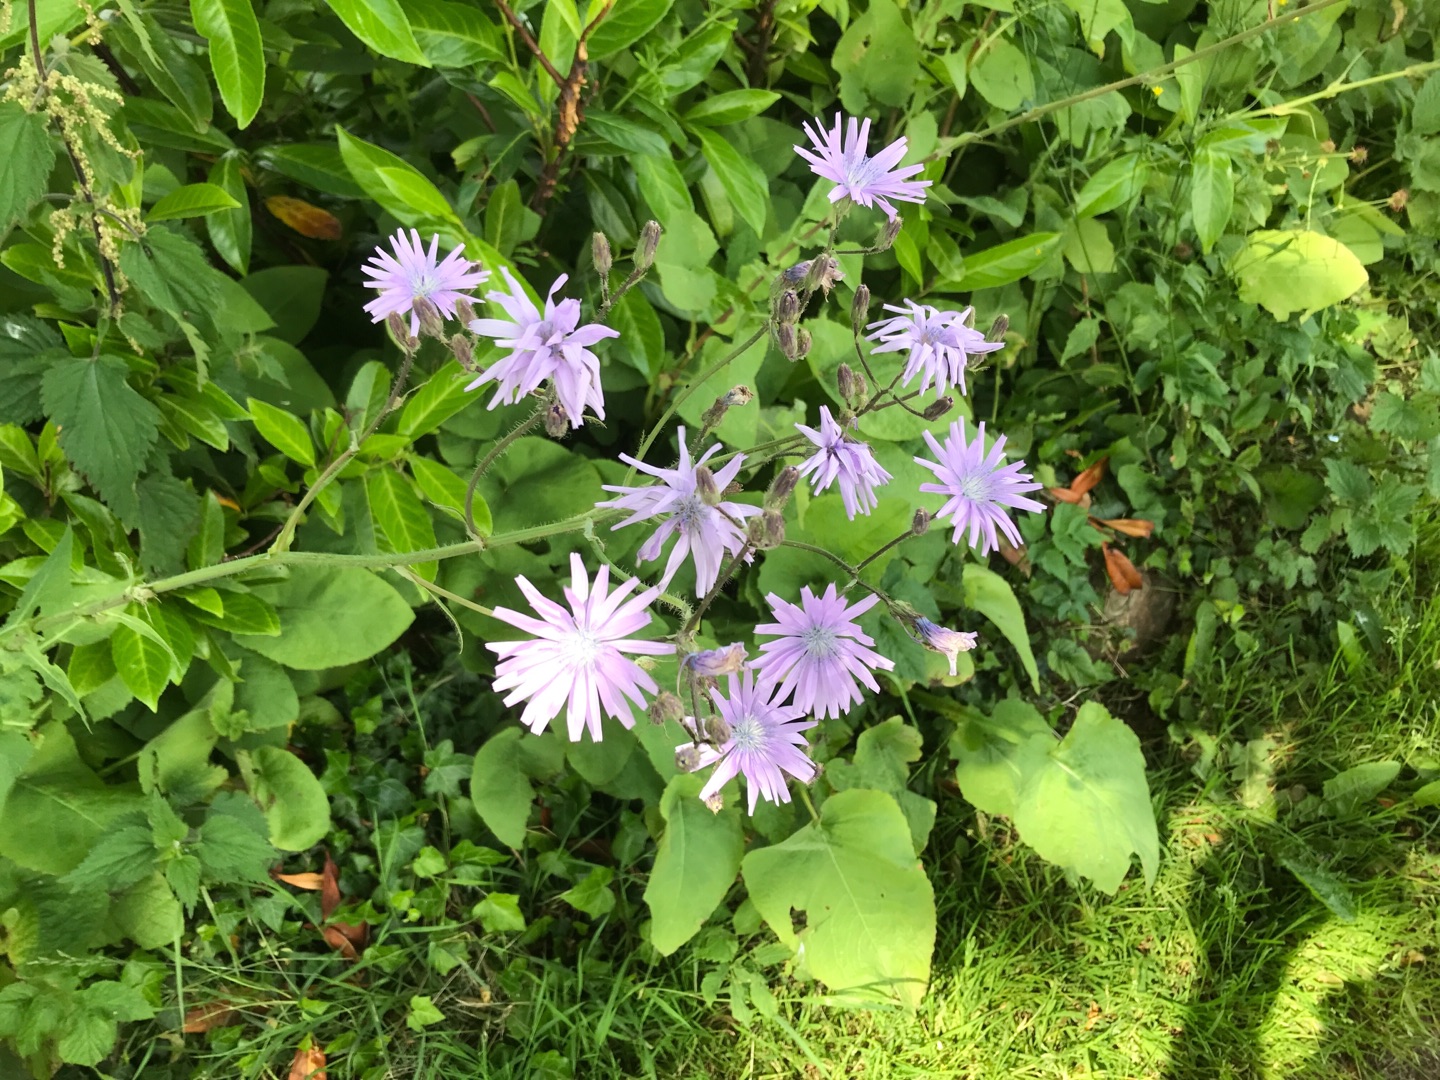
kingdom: Plantae
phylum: Tracheophyta
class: Magnoliopsida
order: Asterales
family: Asteraceae
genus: Lactuca
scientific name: Lactuca macrophylla
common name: Kæmpe-salat
